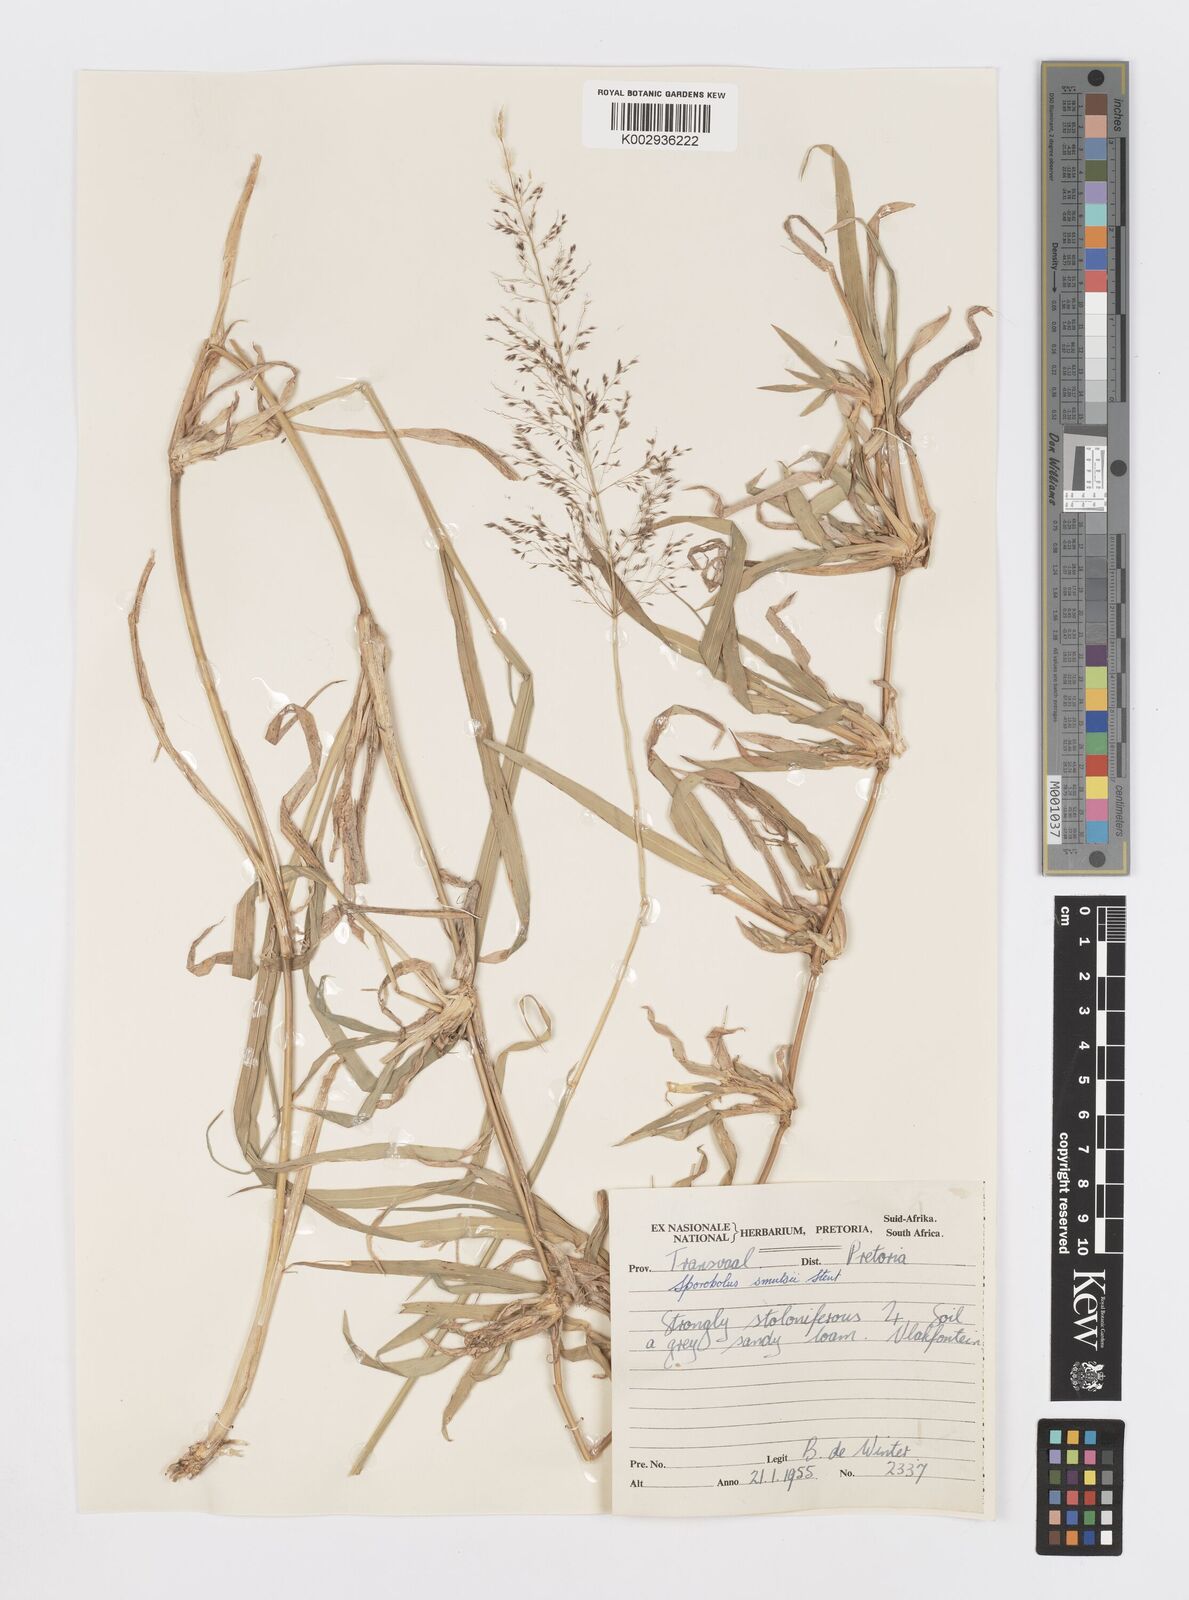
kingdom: Plantae
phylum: Tracheophyta
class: Liliopsida
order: Poales
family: Poaceae
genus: Sporobolus
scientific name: Sporobolus ioclados
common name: Pan dropseed
